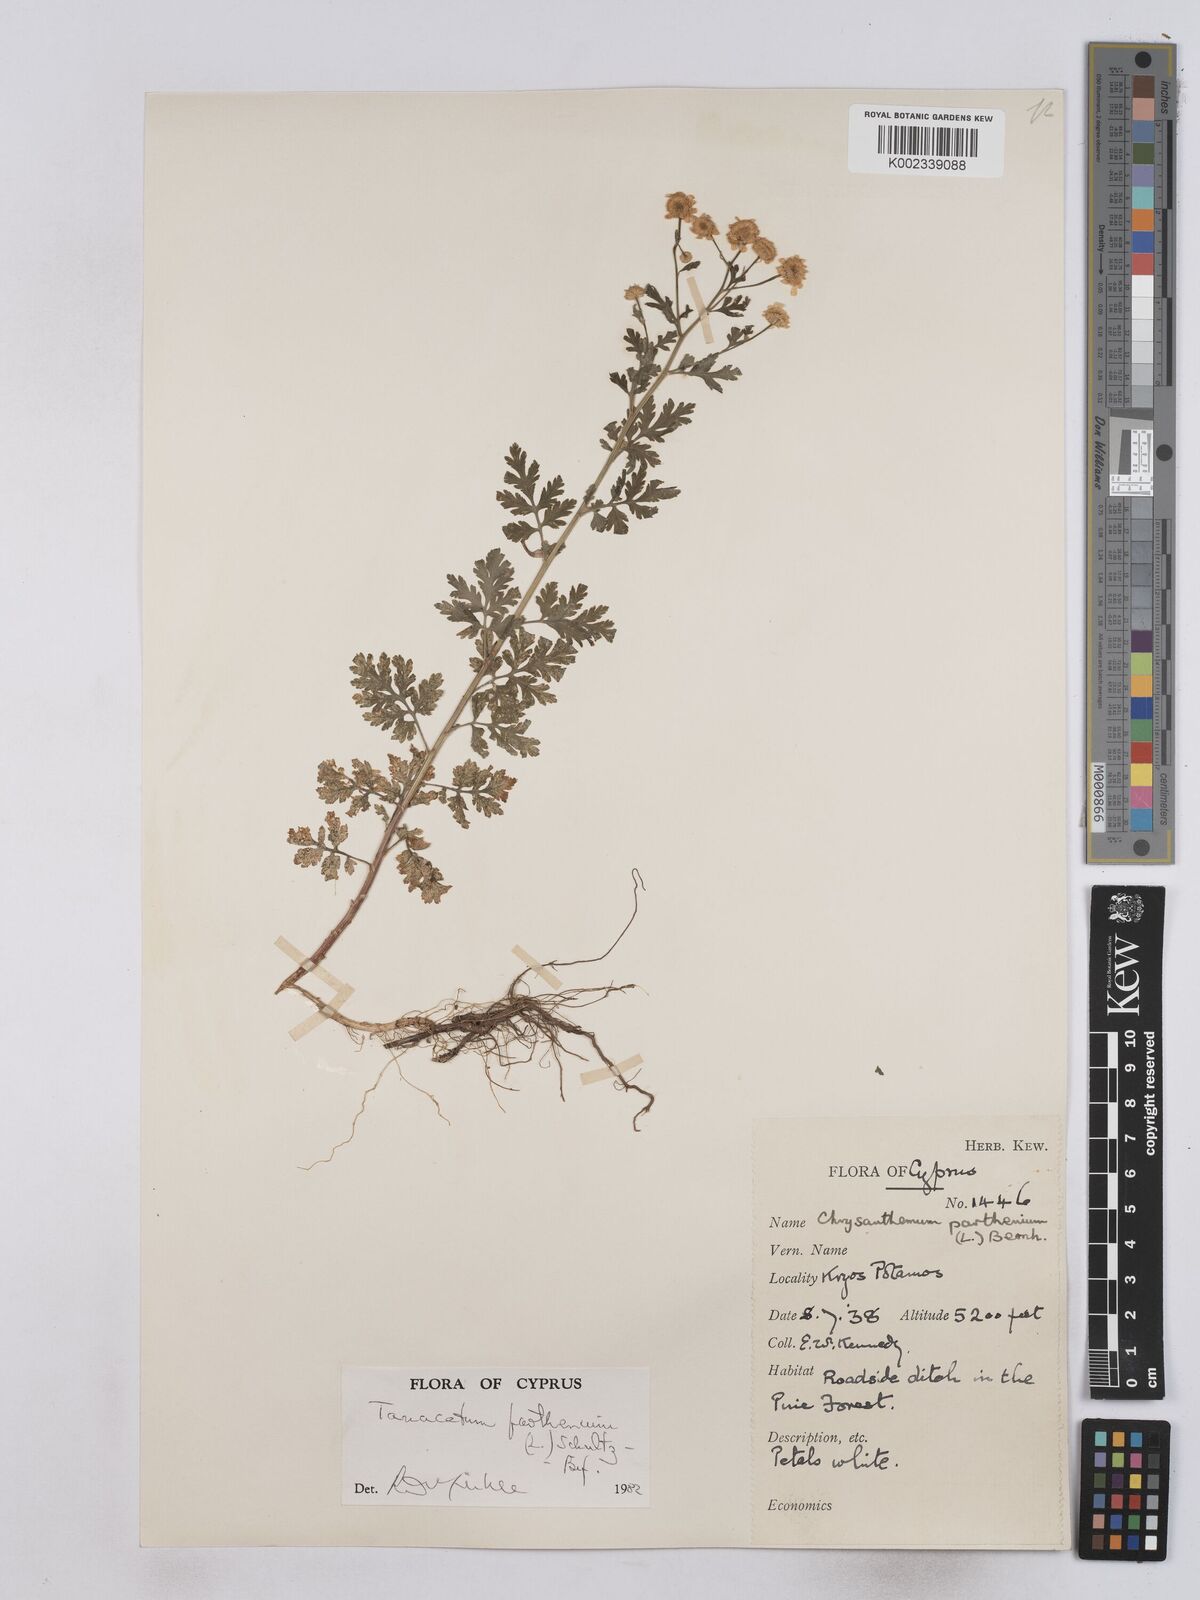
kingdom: Plantae
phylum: Tracheophyta
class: Magnoliopsida
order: Asterales
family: Asteraceae
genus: Tanacetum
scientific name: Tanacetum parthenium
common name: Feverfew
